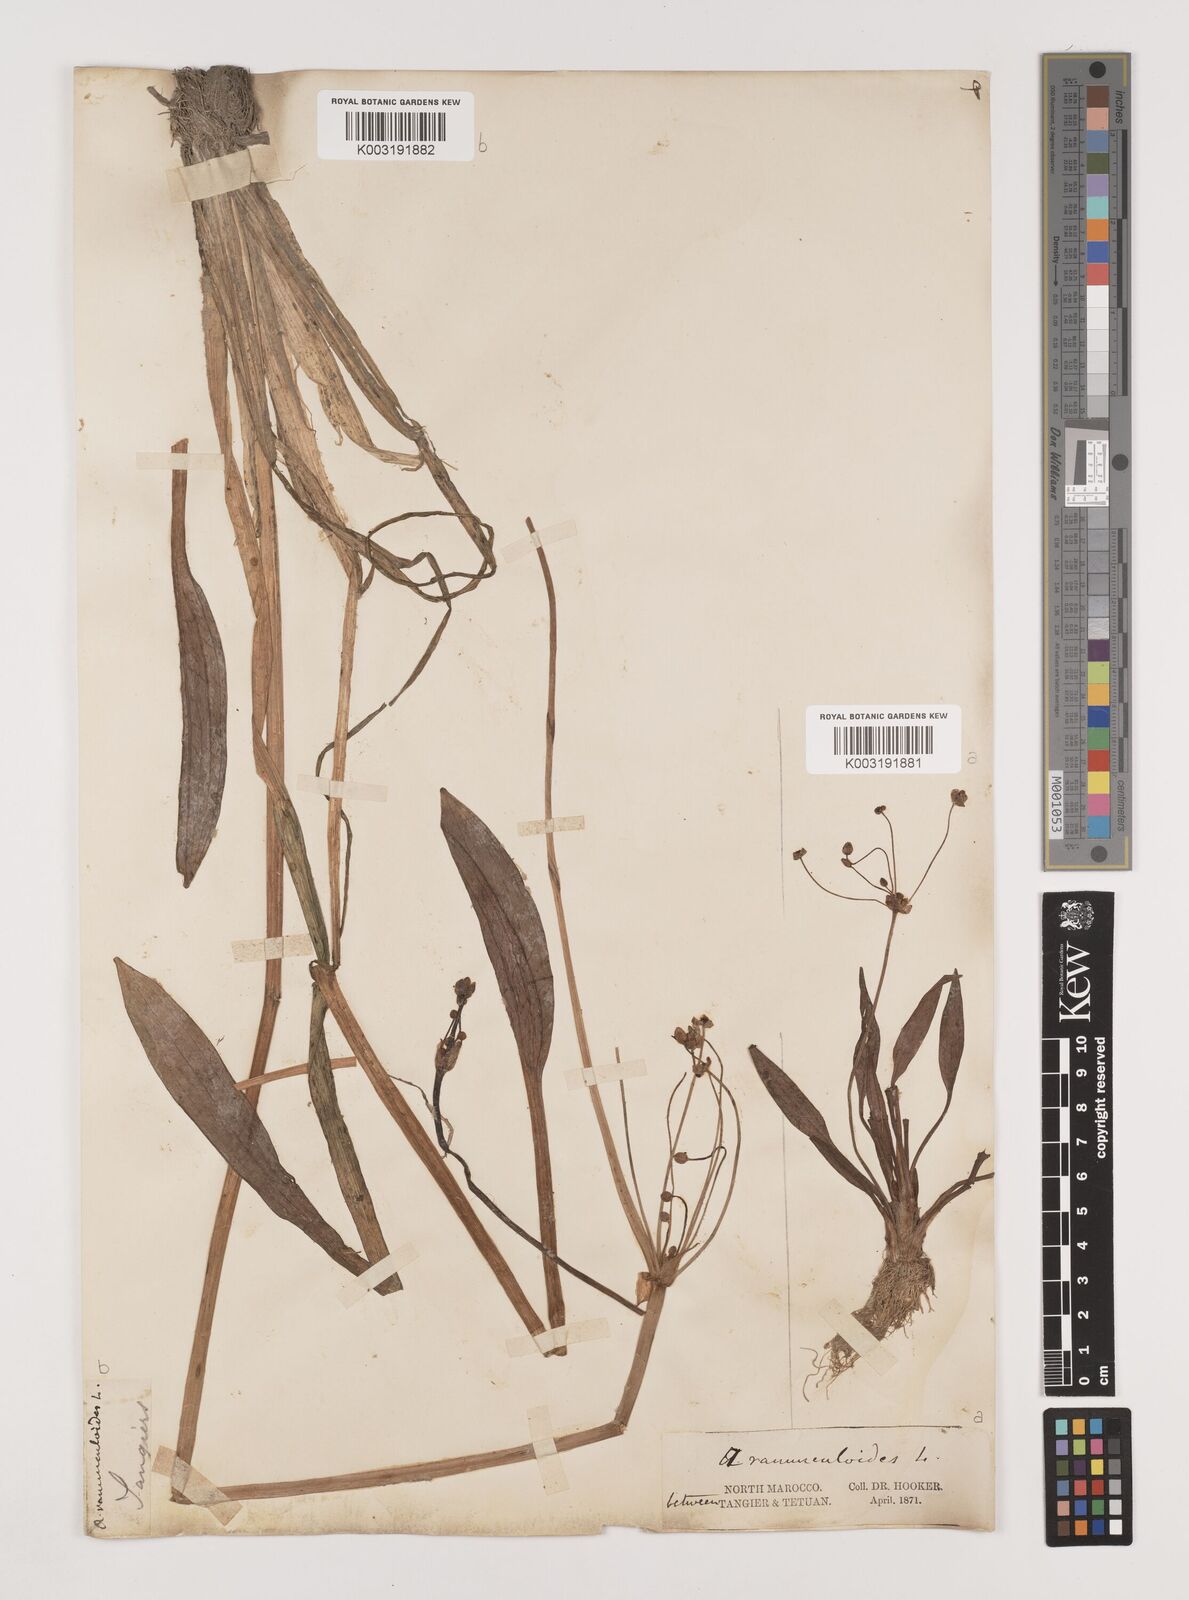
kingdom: Plantae
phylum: Tracheophyta
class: Liliopsida
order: Alismatales
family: Alismataceae
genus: Baldellia
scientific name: Baldellia ranunculoides
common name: Lesser water-plantain
